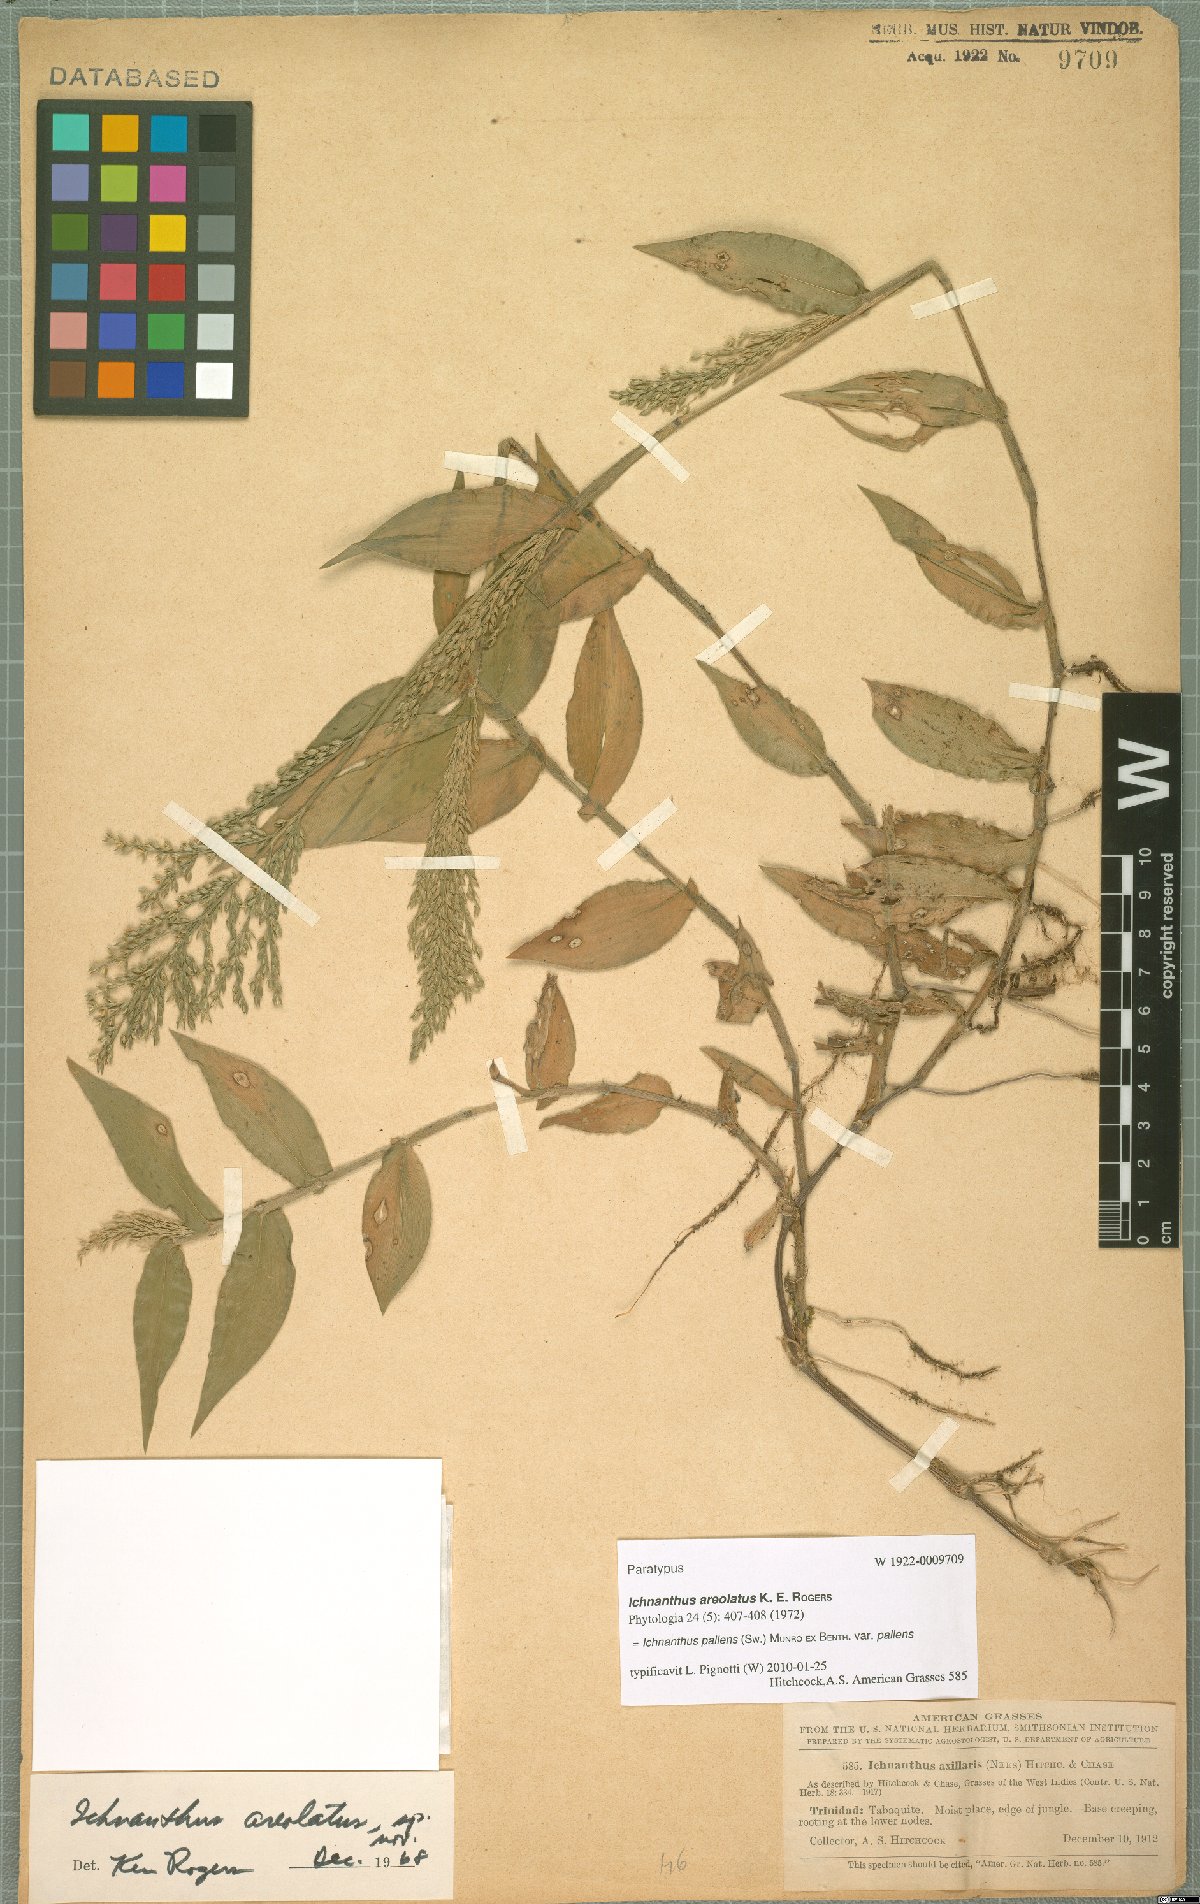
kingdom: Plantae
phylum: Tracheophyta
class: Liliopsida
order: Poales
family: Poaceae
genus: Ichnanthus
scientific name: Ichnanthus pallens
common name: Water grass
